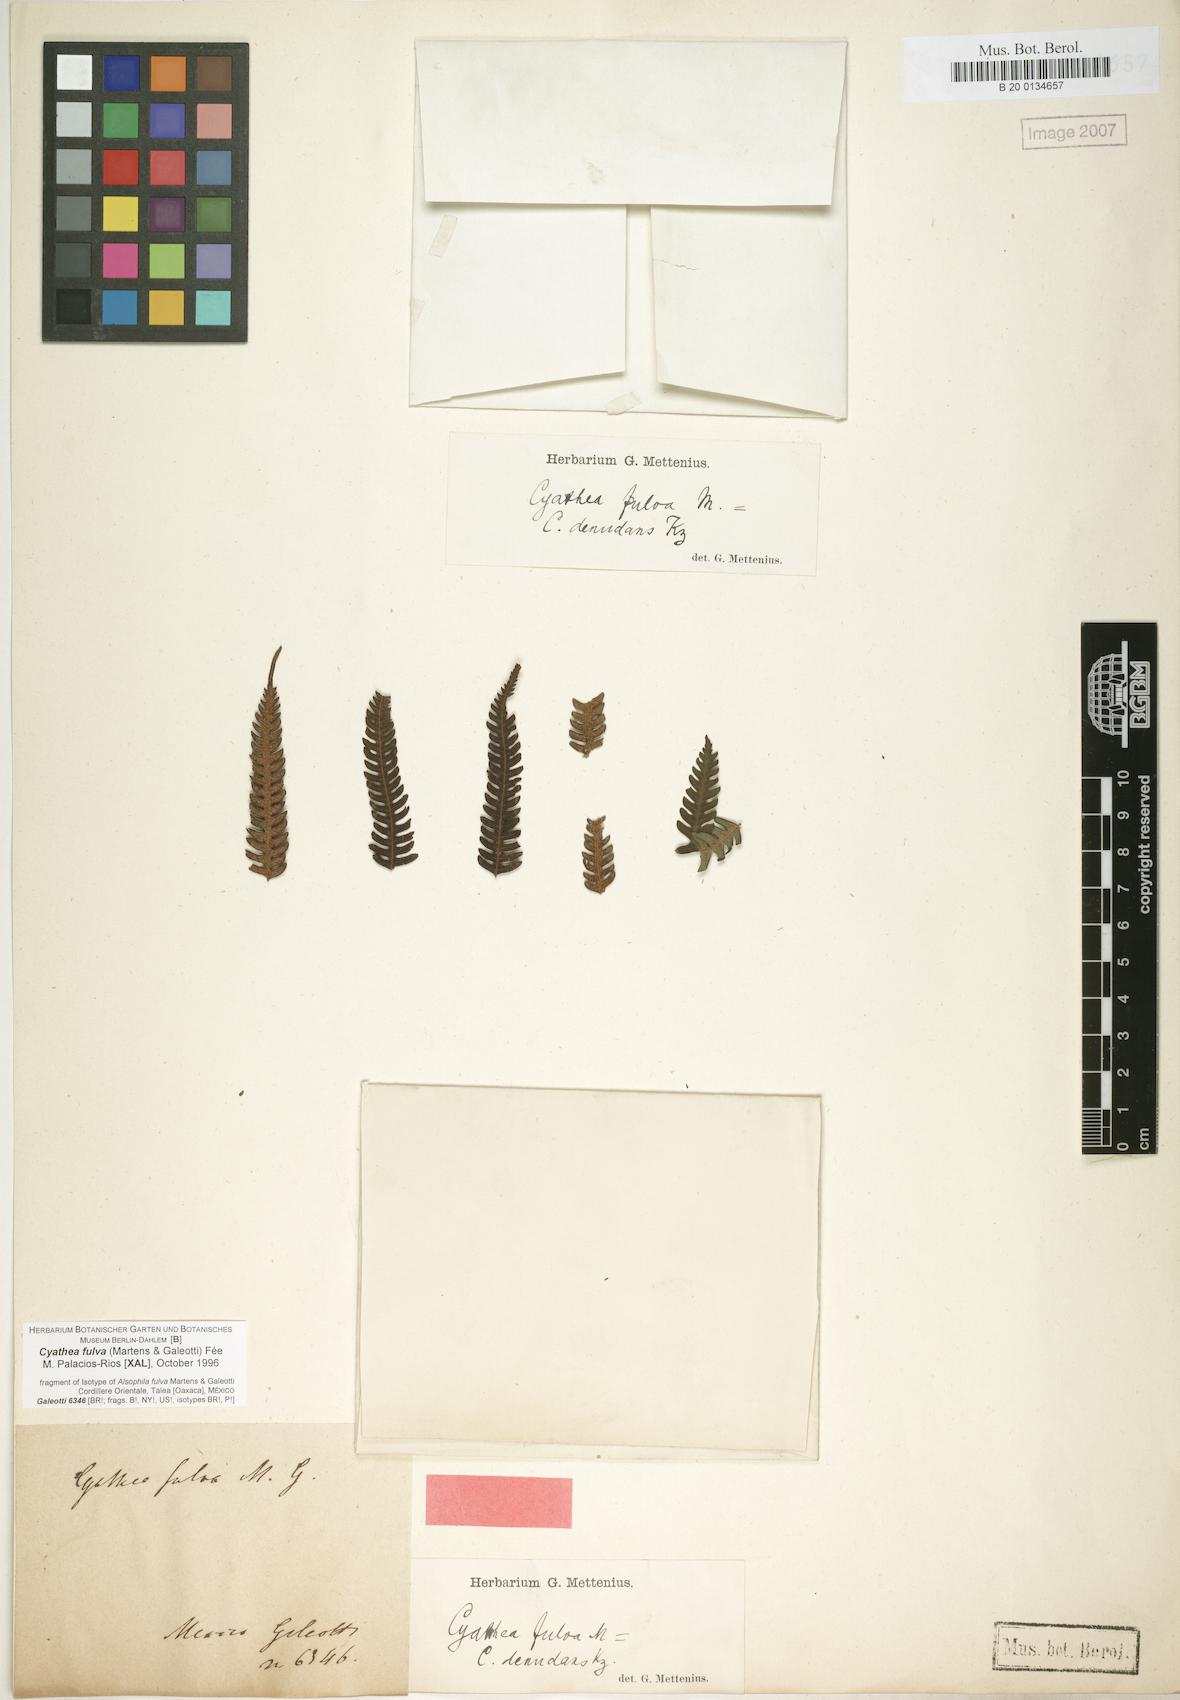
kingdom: Plantae
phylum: Tracheophyta
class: Polypodiopsida
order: Cyatheales
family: Cyatheaceae
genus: Cyathea
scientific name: Cyathea fulva
